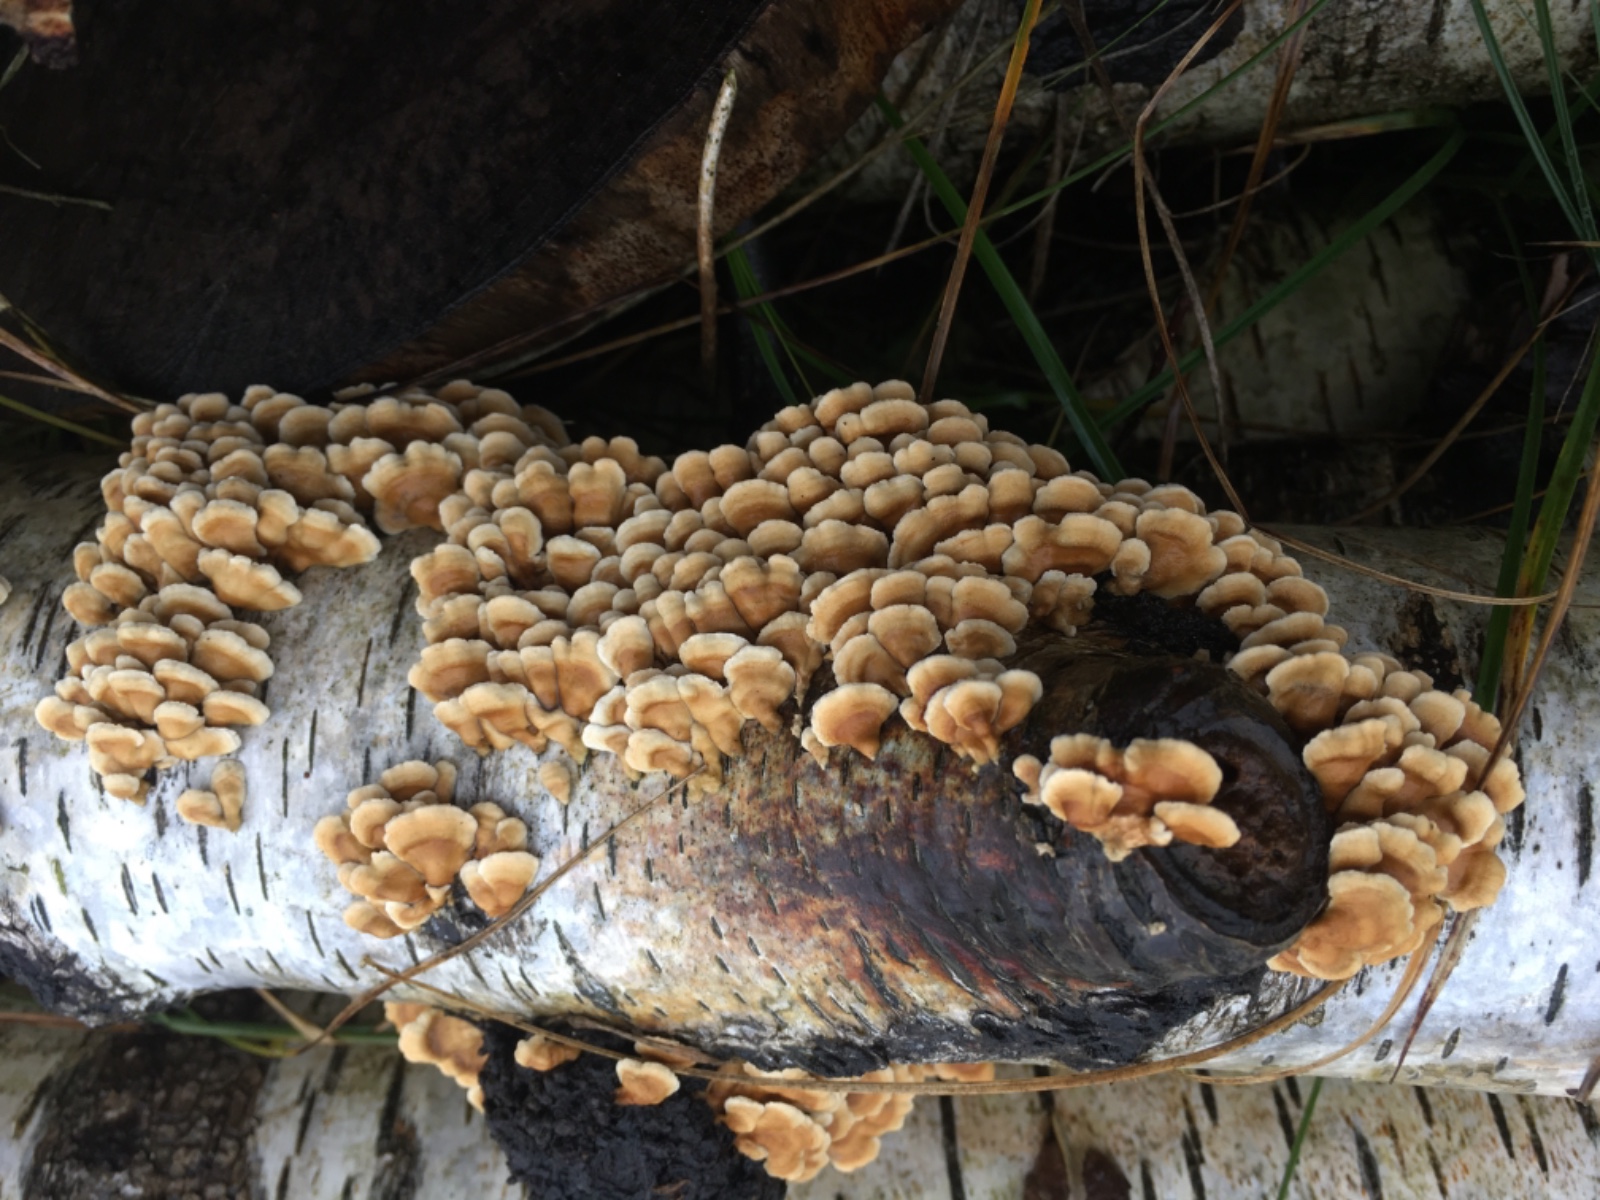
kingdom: Fungi
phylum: Basidiomycota
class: Agaricomycetes
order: Amylocorticiales
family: Amylocorticiaceae
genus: Plicaturopsis
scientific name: Plicaturopsis crispa
